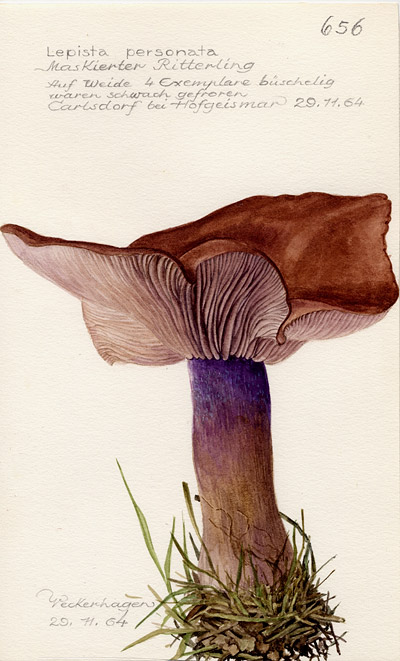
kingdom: Fungi
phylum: Basidiomycota
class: Agaricomycetes
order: Agaricales
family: Tricholomataceae
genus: Lepista
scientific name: Lepista personata
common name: Field blewit
